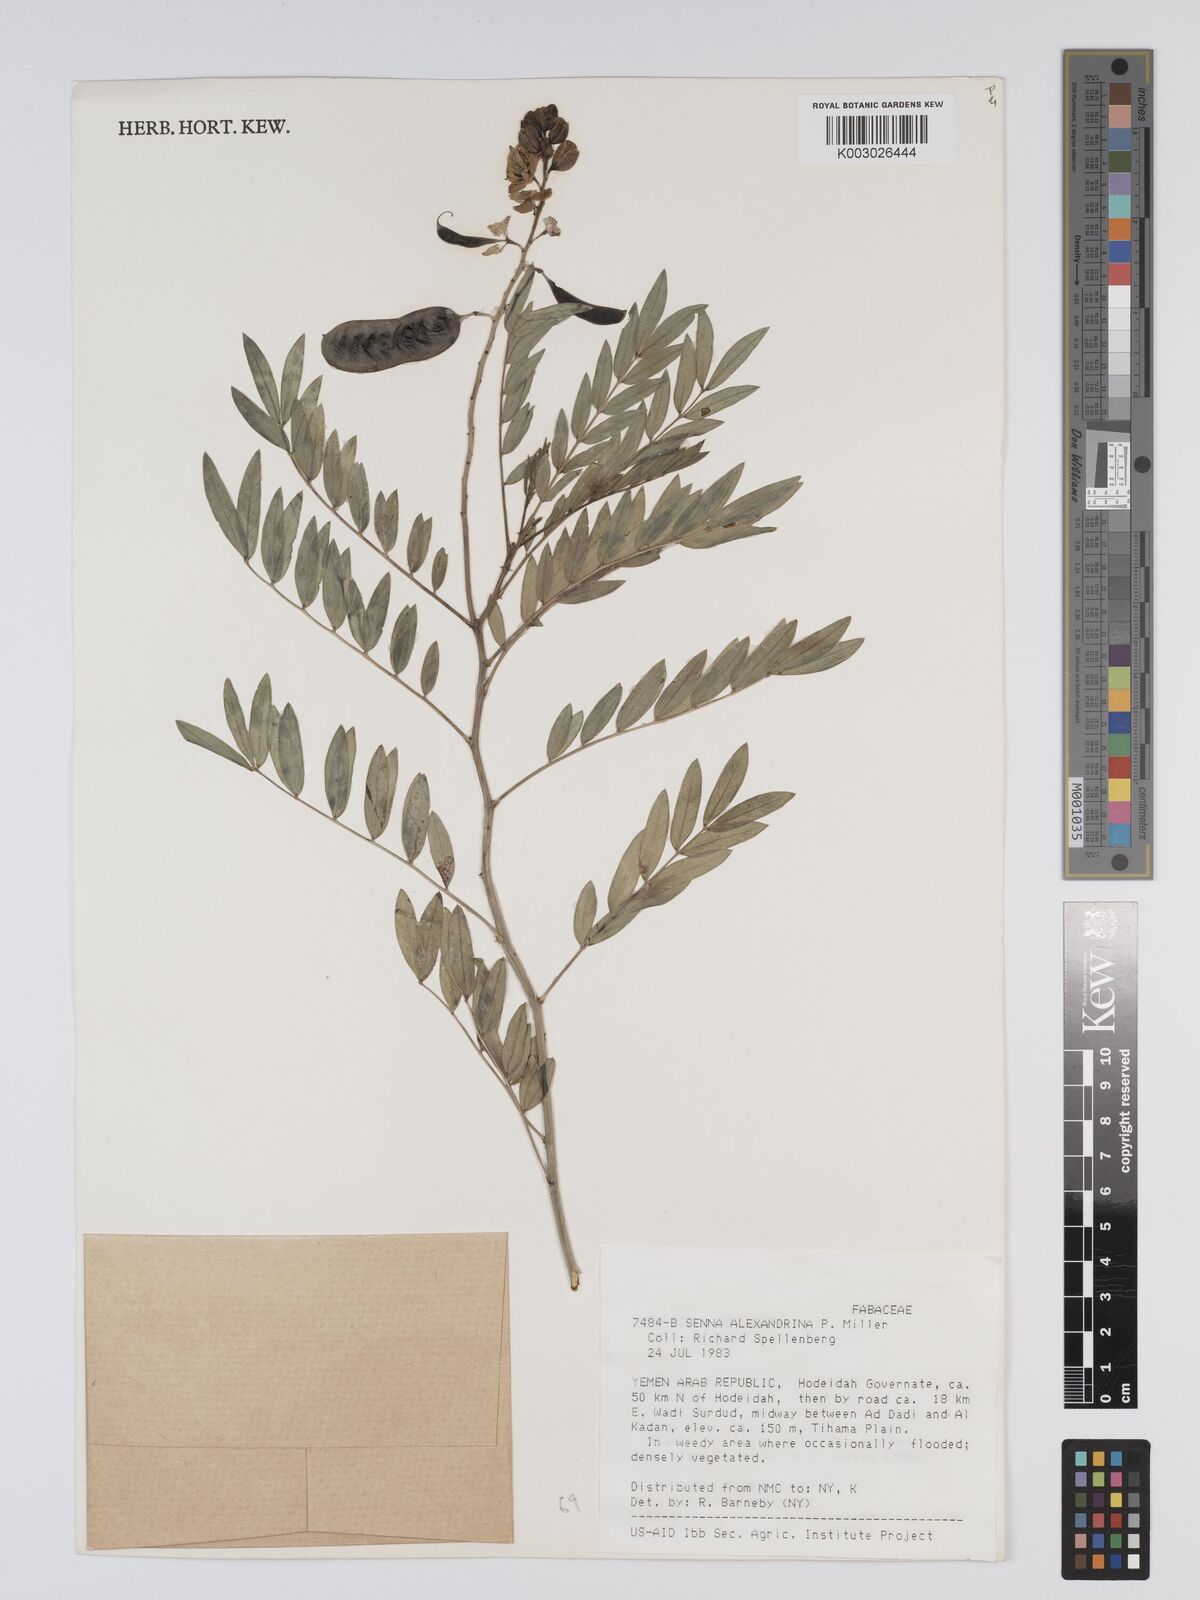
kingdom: Plantae
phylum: Tracheophyta
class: Magnoliopsida
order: Fabales
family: Fabaceae
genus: Senna
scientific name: Senna alexandrina
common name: True senna
